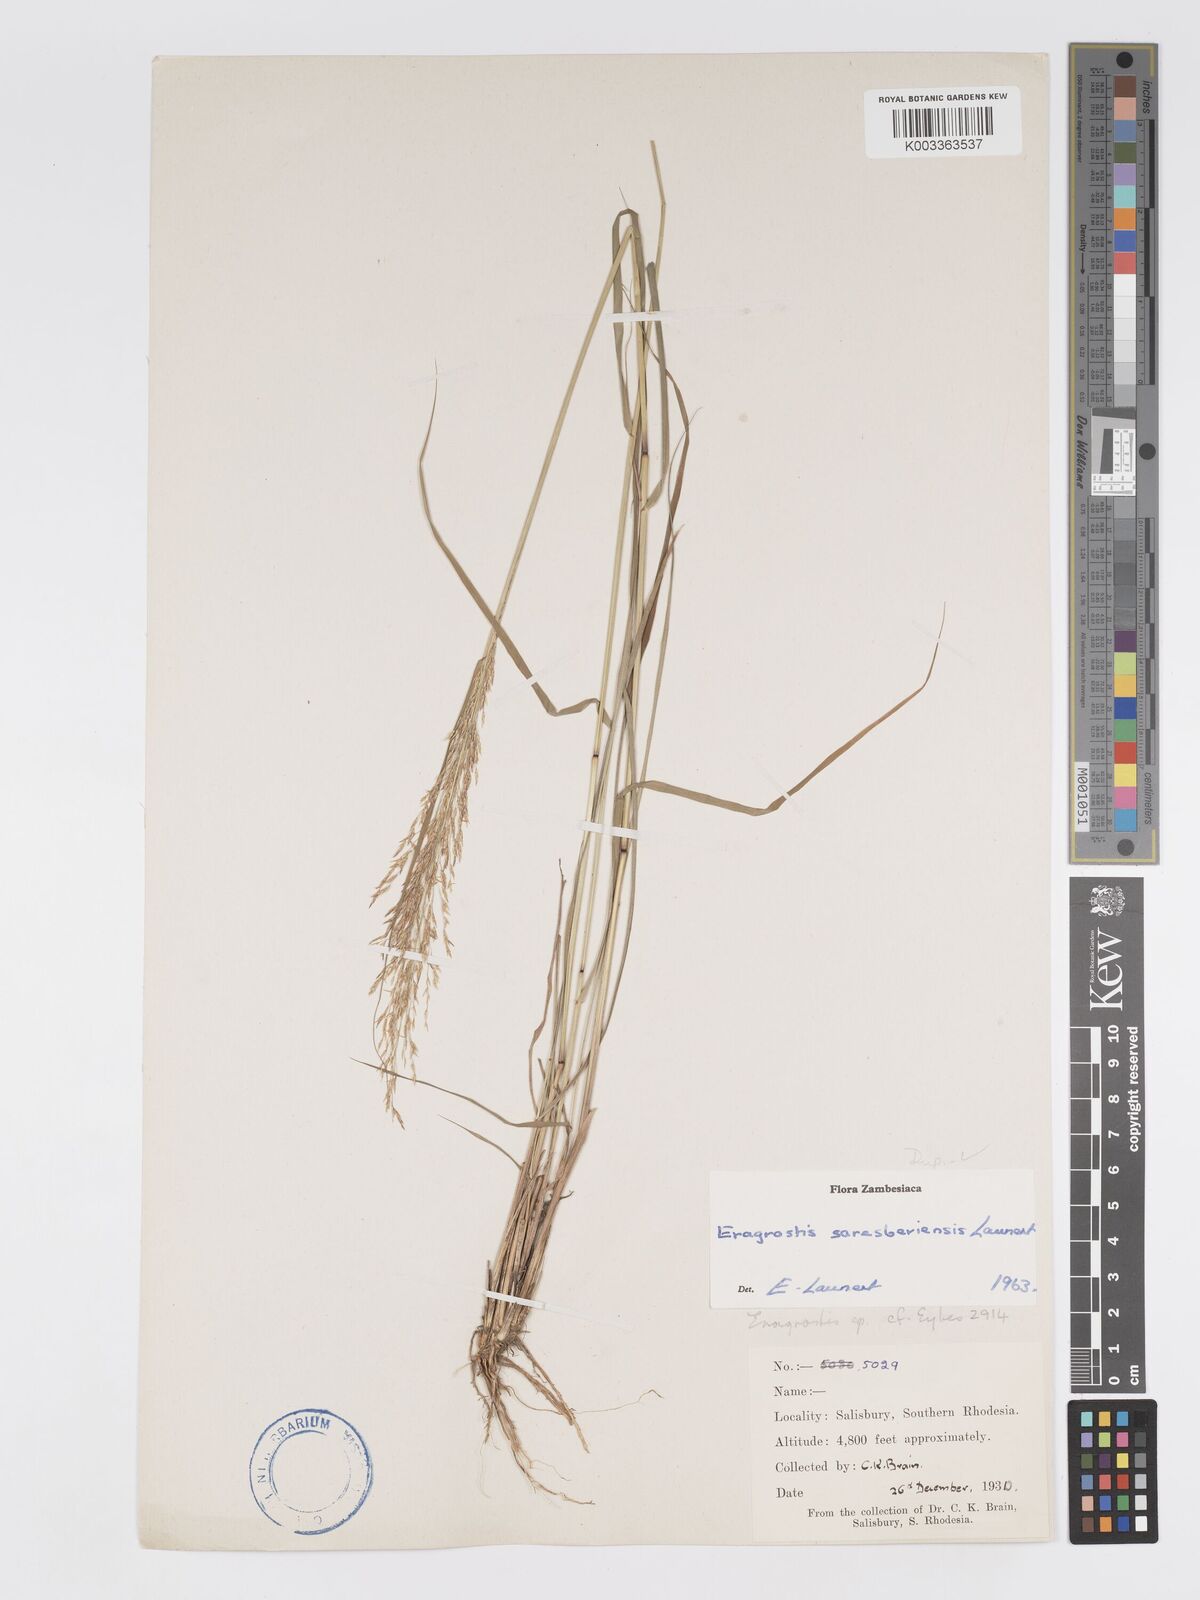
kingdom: Plantae
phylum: Tracheophyta
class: Liliopsida
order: Poales
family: Poaceae
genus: Eragrostis
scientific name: Eragrostis saresberiensis
